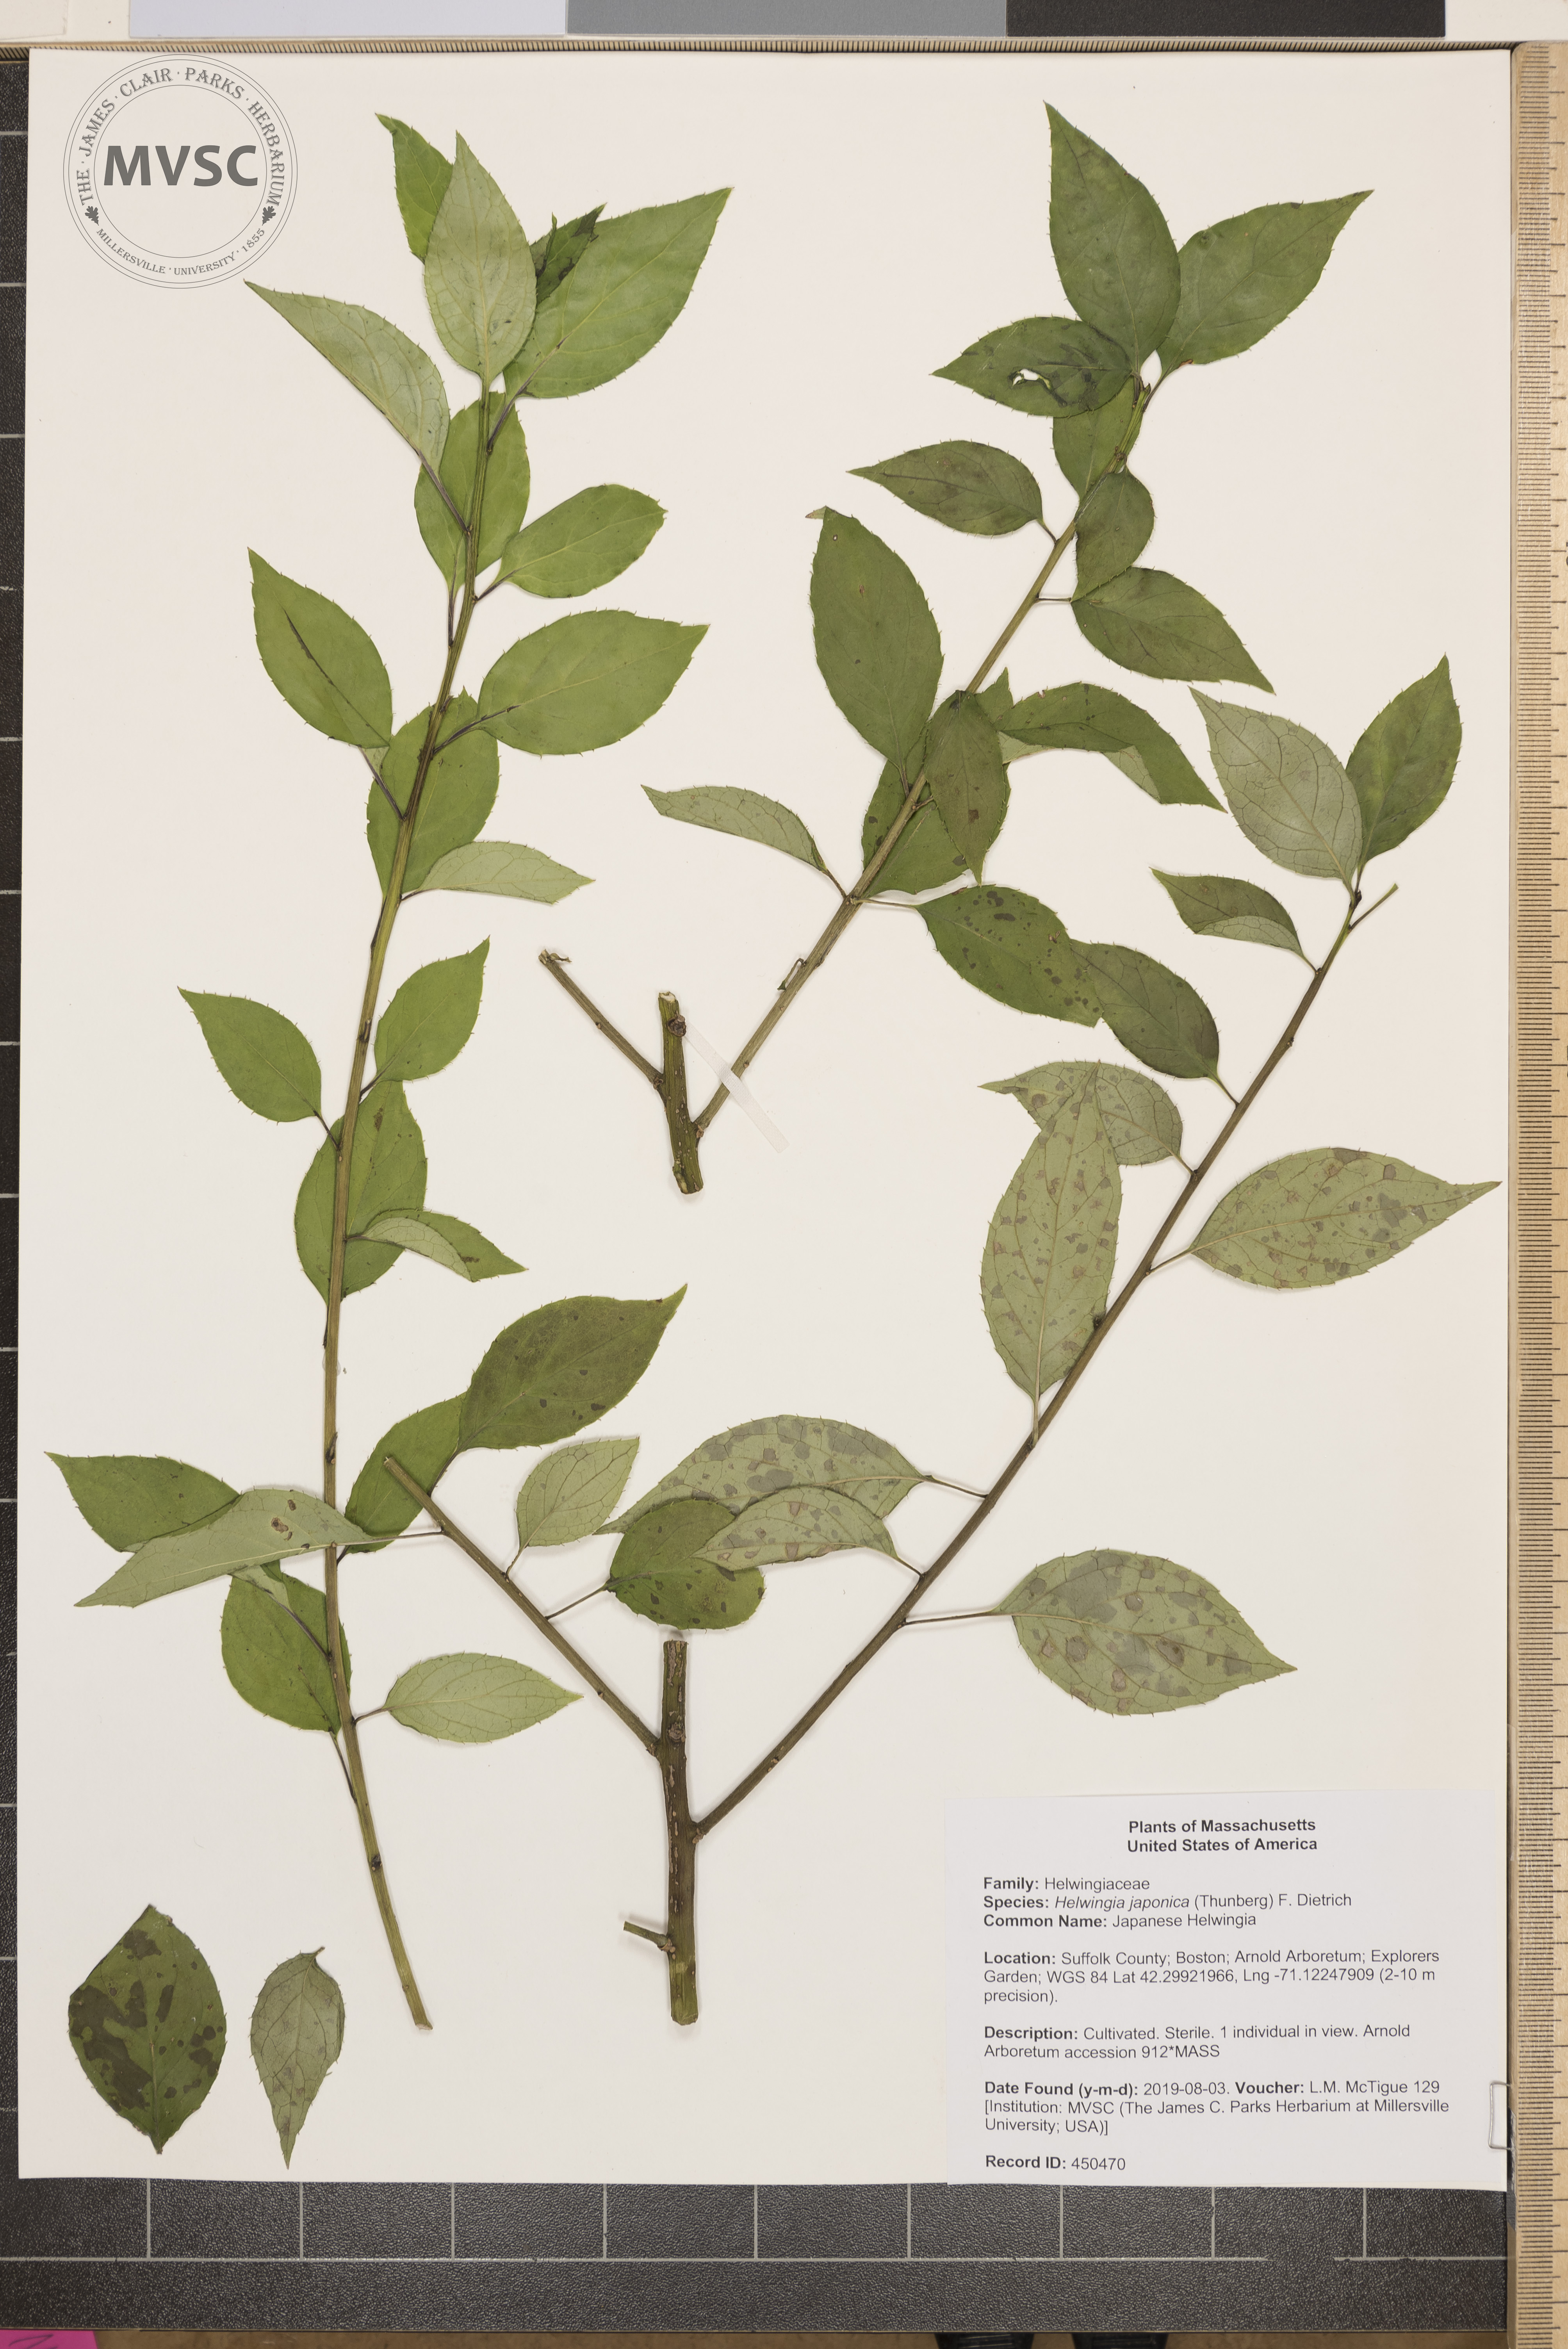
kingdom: Plantae
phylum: Tracheophyta
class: Magnoliopsida
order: Aquifoliales
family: Helwingiaceae
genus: Helwingia
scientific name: Helwingia japonica
